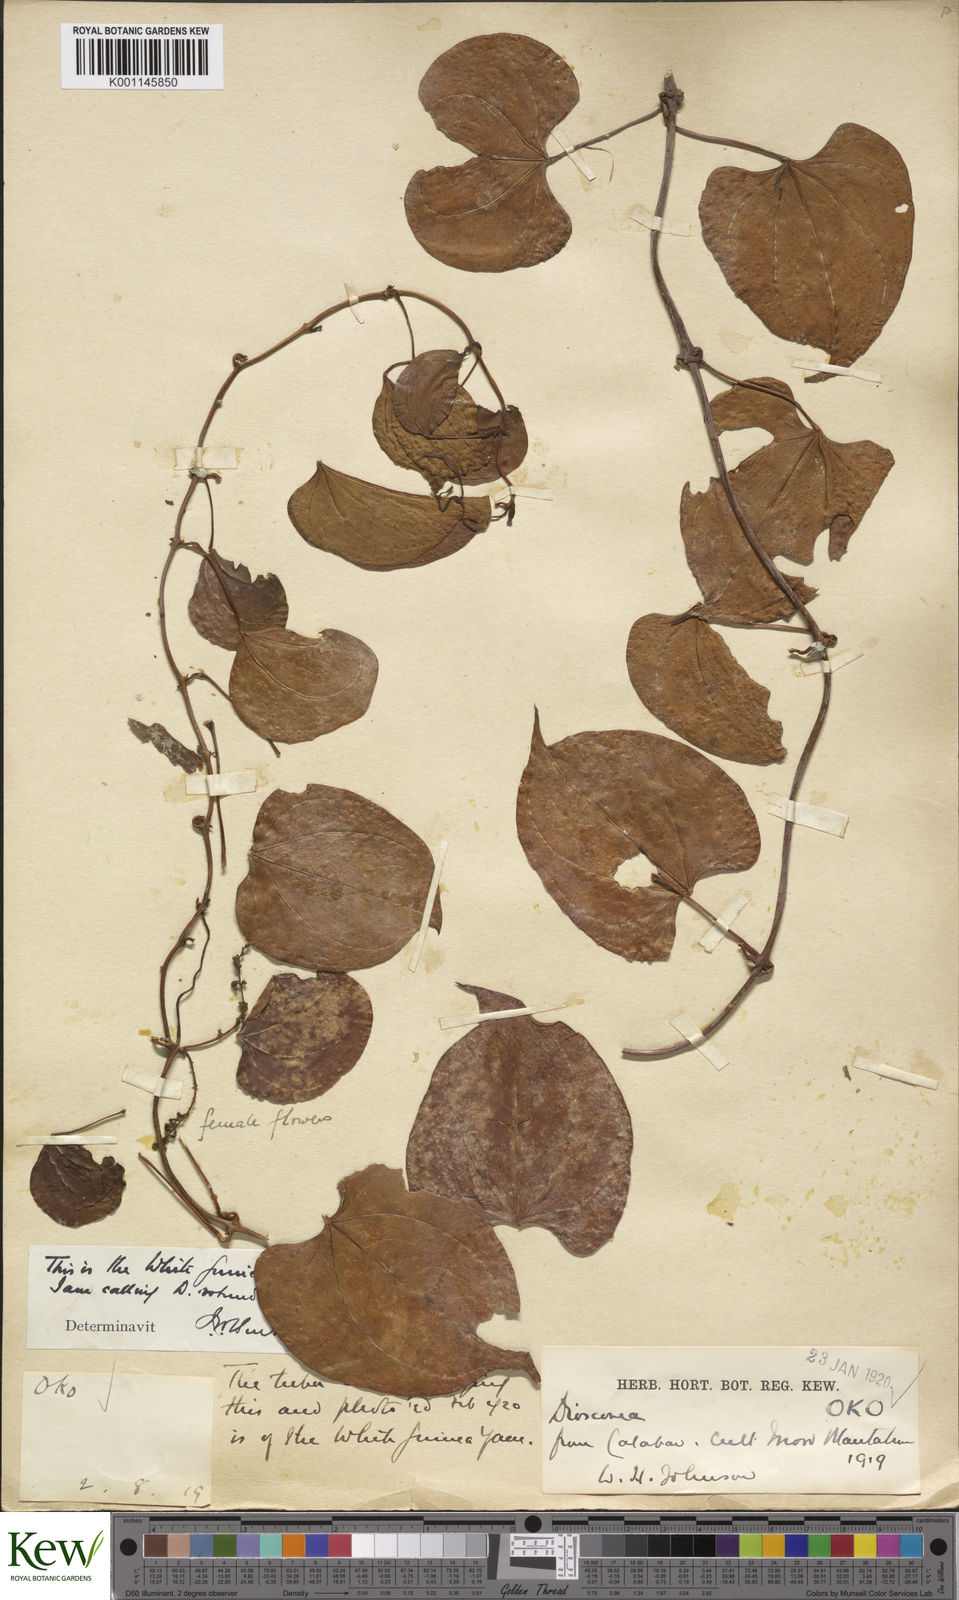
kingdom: Plantae
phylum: Tracheophyta
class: Liliopsida
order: Dioscoreales
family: Dioscoreaceae
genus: Dioscorea
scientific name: Dioscorea cayenensis
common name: Attoto yam
